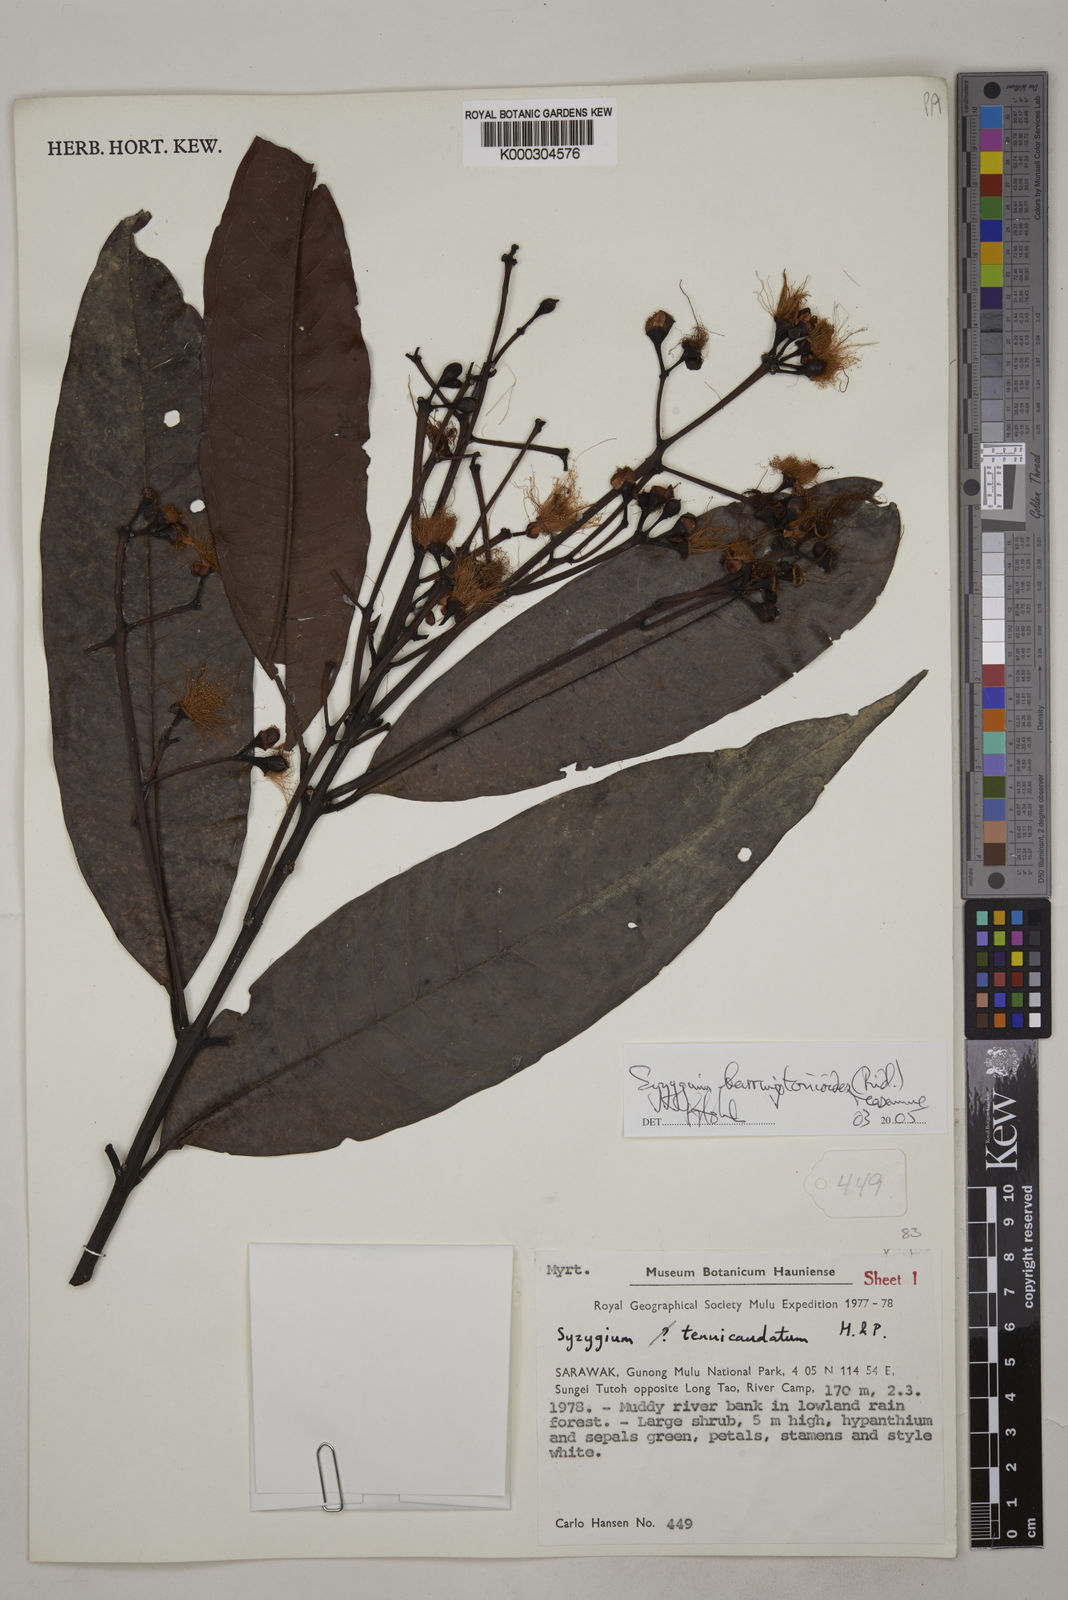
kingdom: Plantae
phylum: Tracheophyta
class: Magnoliopsida
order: Myrtales
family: Myrtaceae
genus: Syzygium
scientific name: Syzygium
